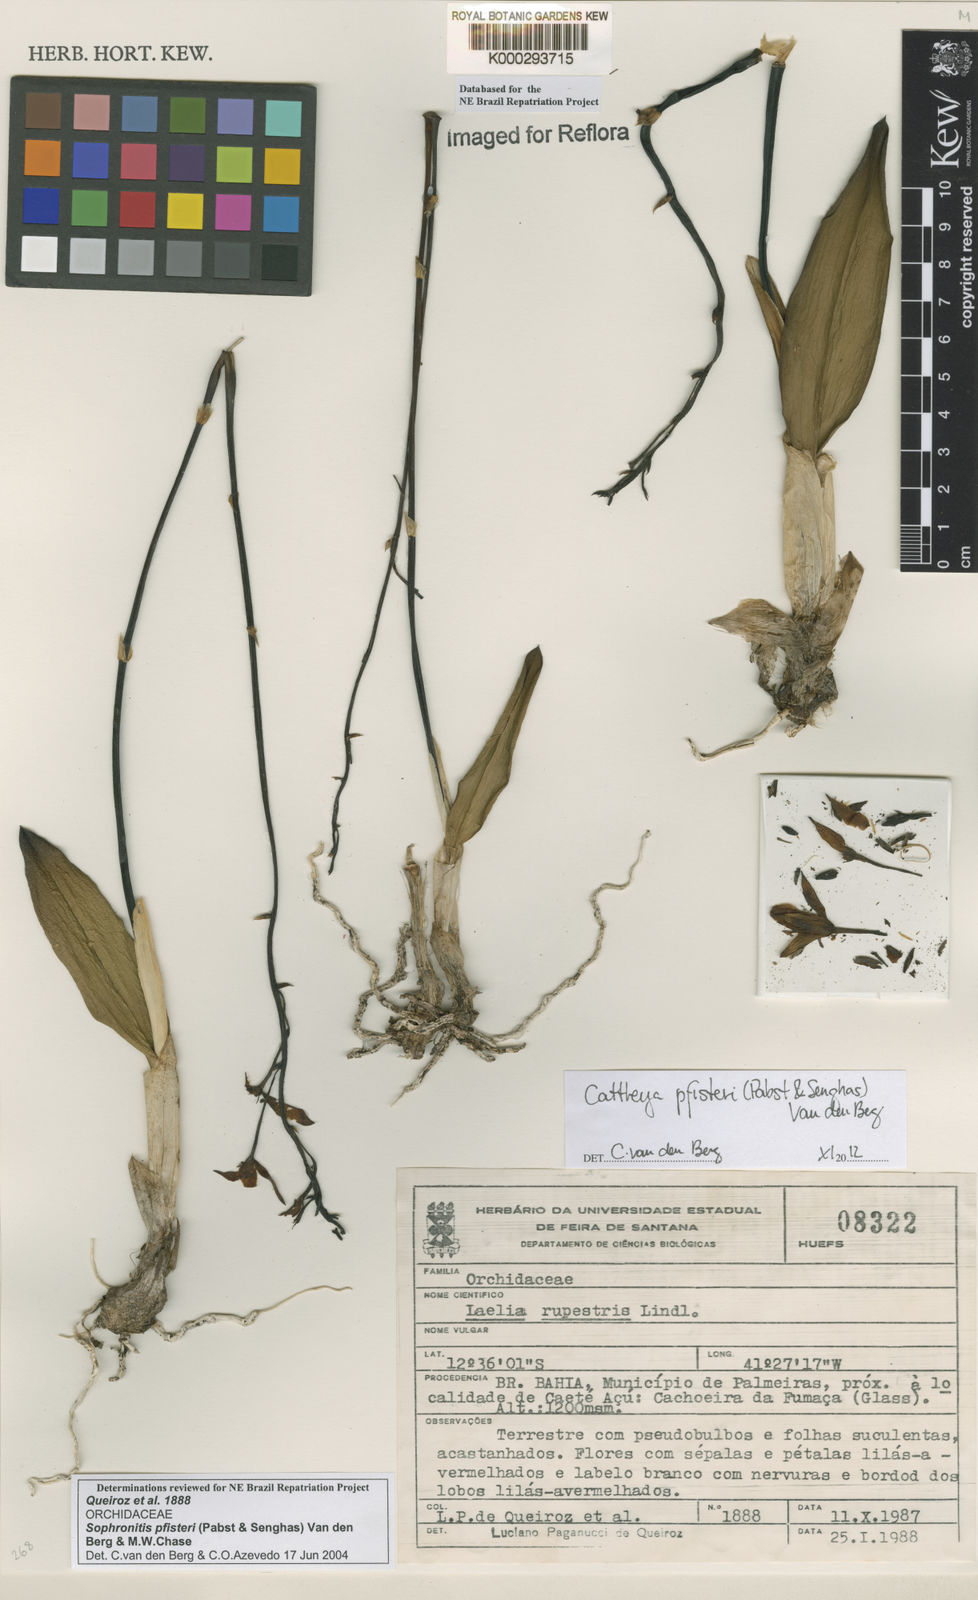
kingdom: Plantae
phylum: Tracheophyta
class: Liliopsida
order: Asparagales
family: Orchidaceae
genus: Cattleya
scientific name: Cattleya pfisteri
